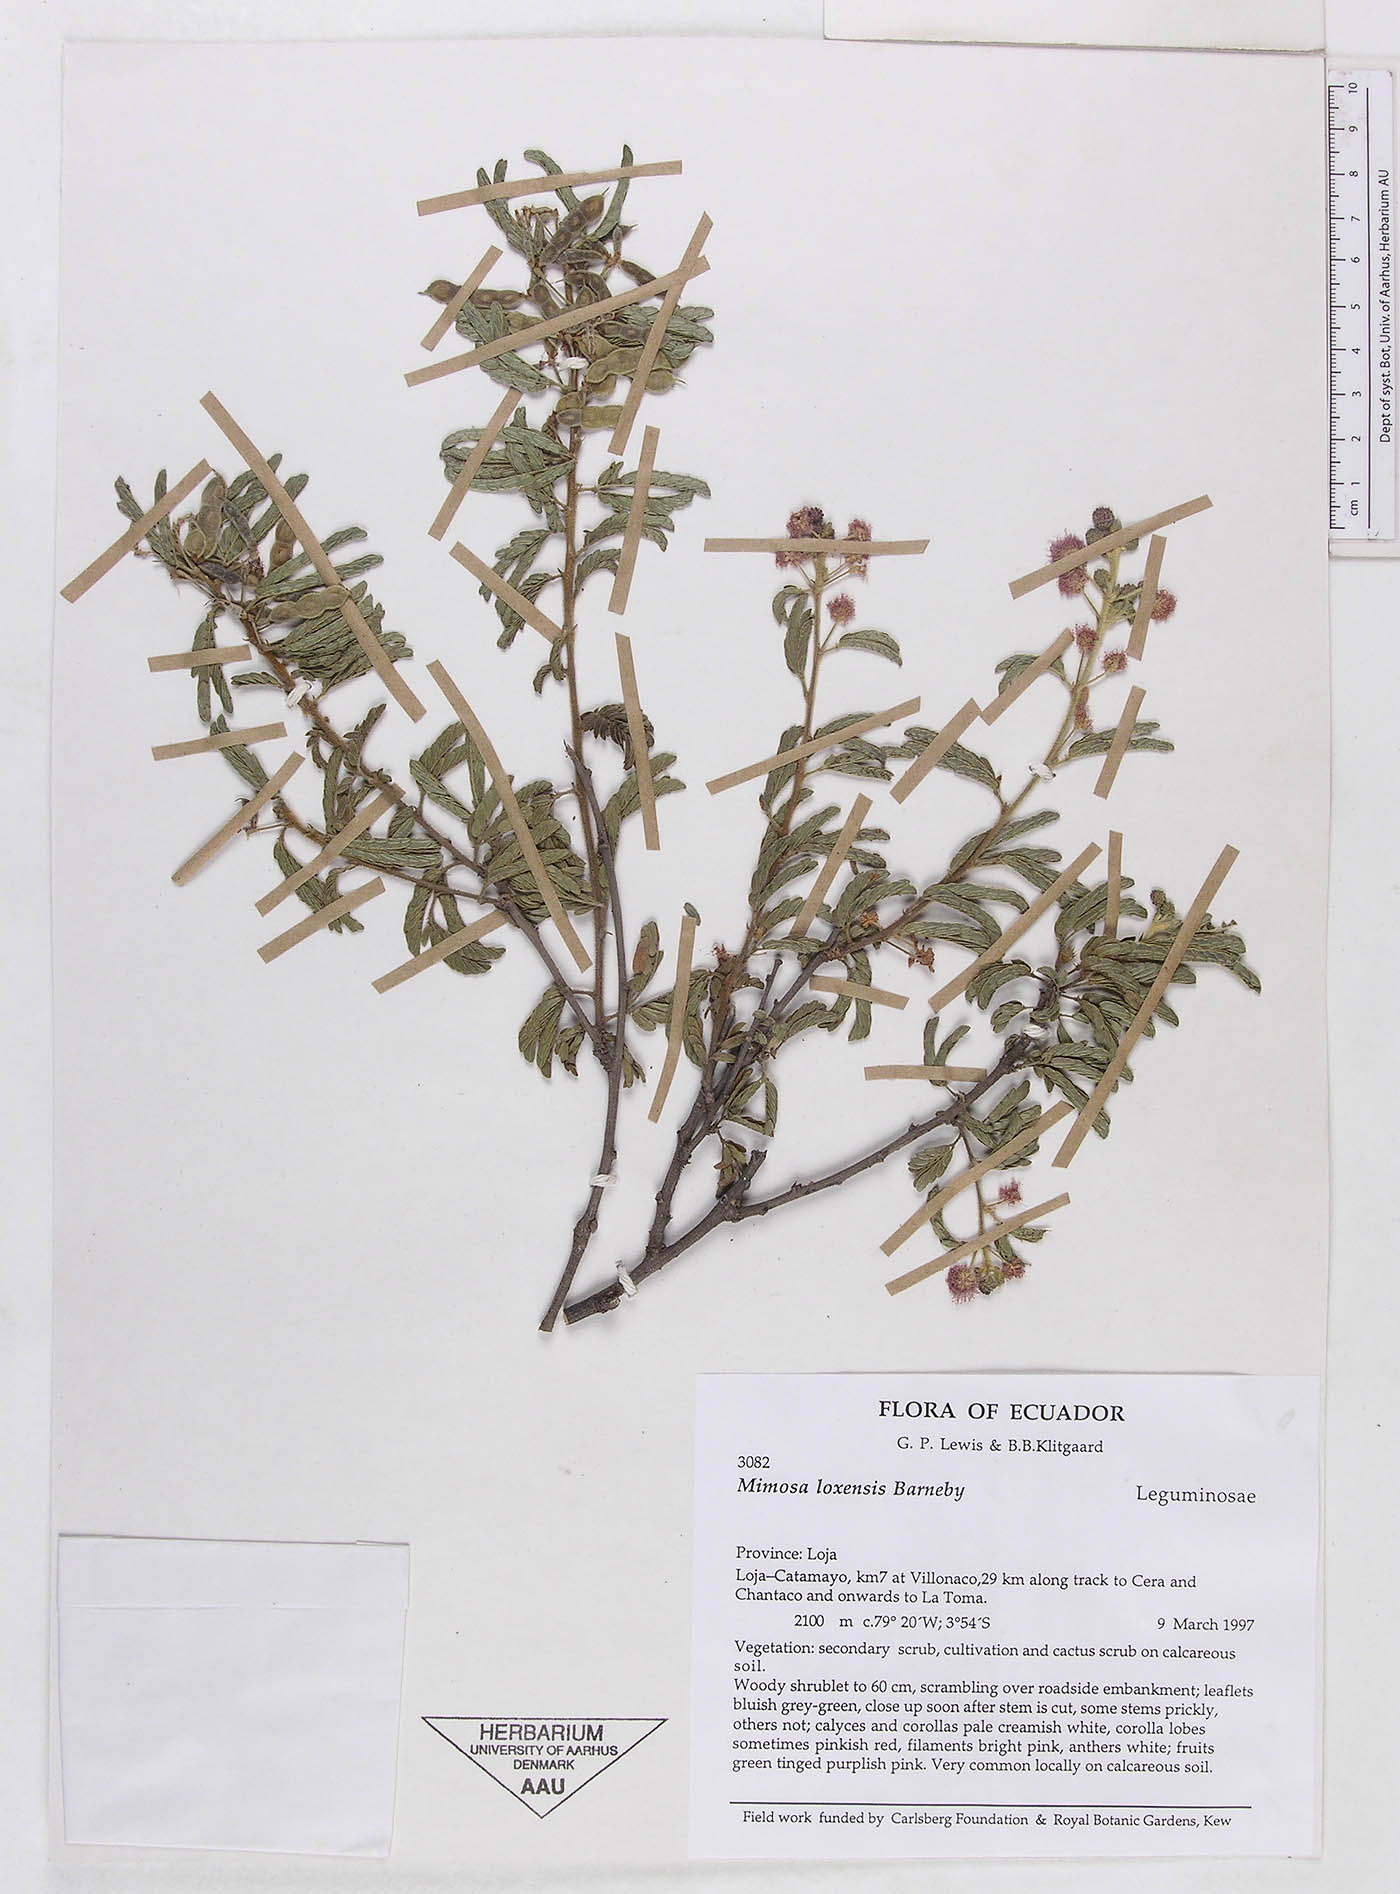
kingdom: Plantae
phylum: Tracheophyta
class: Magnoliopsida
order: Fabales
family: Fabaceae
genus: Mimosa
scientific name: Mimosa loxensis
